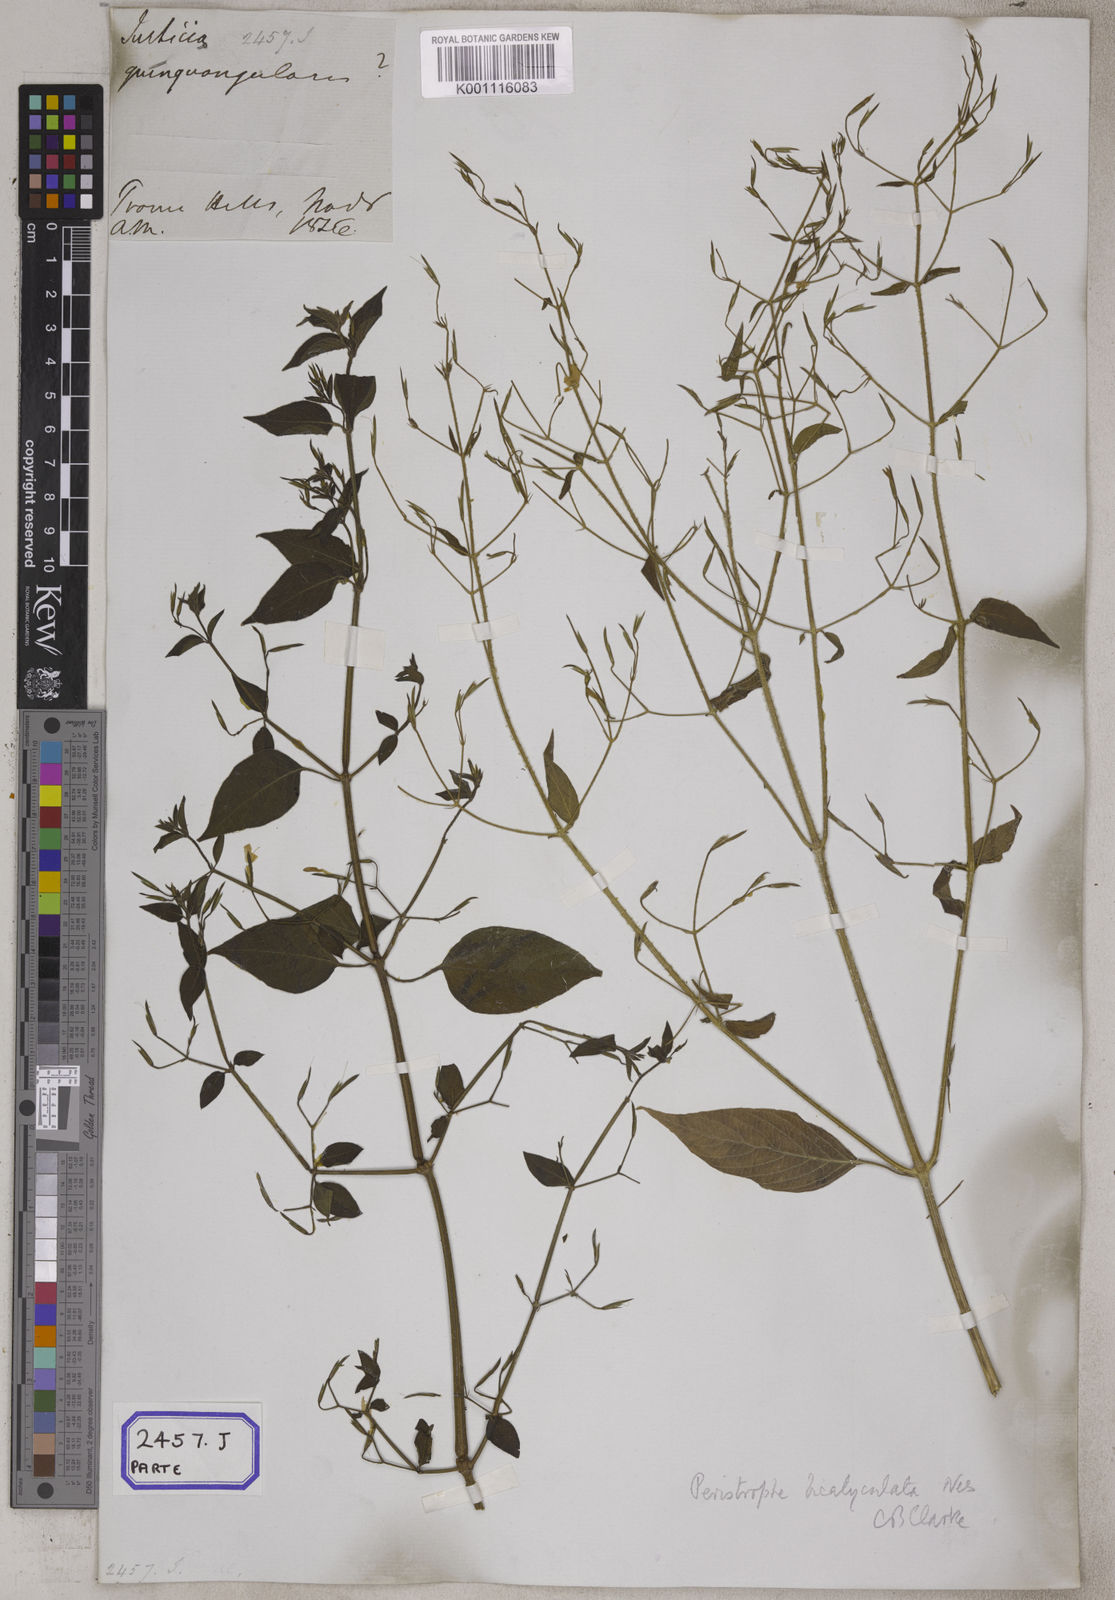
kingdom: Plantae
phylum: Tracheophyta
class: Magnoliopsida
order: Lamiales
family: Acanthaceae
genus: Dicliptera
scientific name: Dicliptera paniculata
